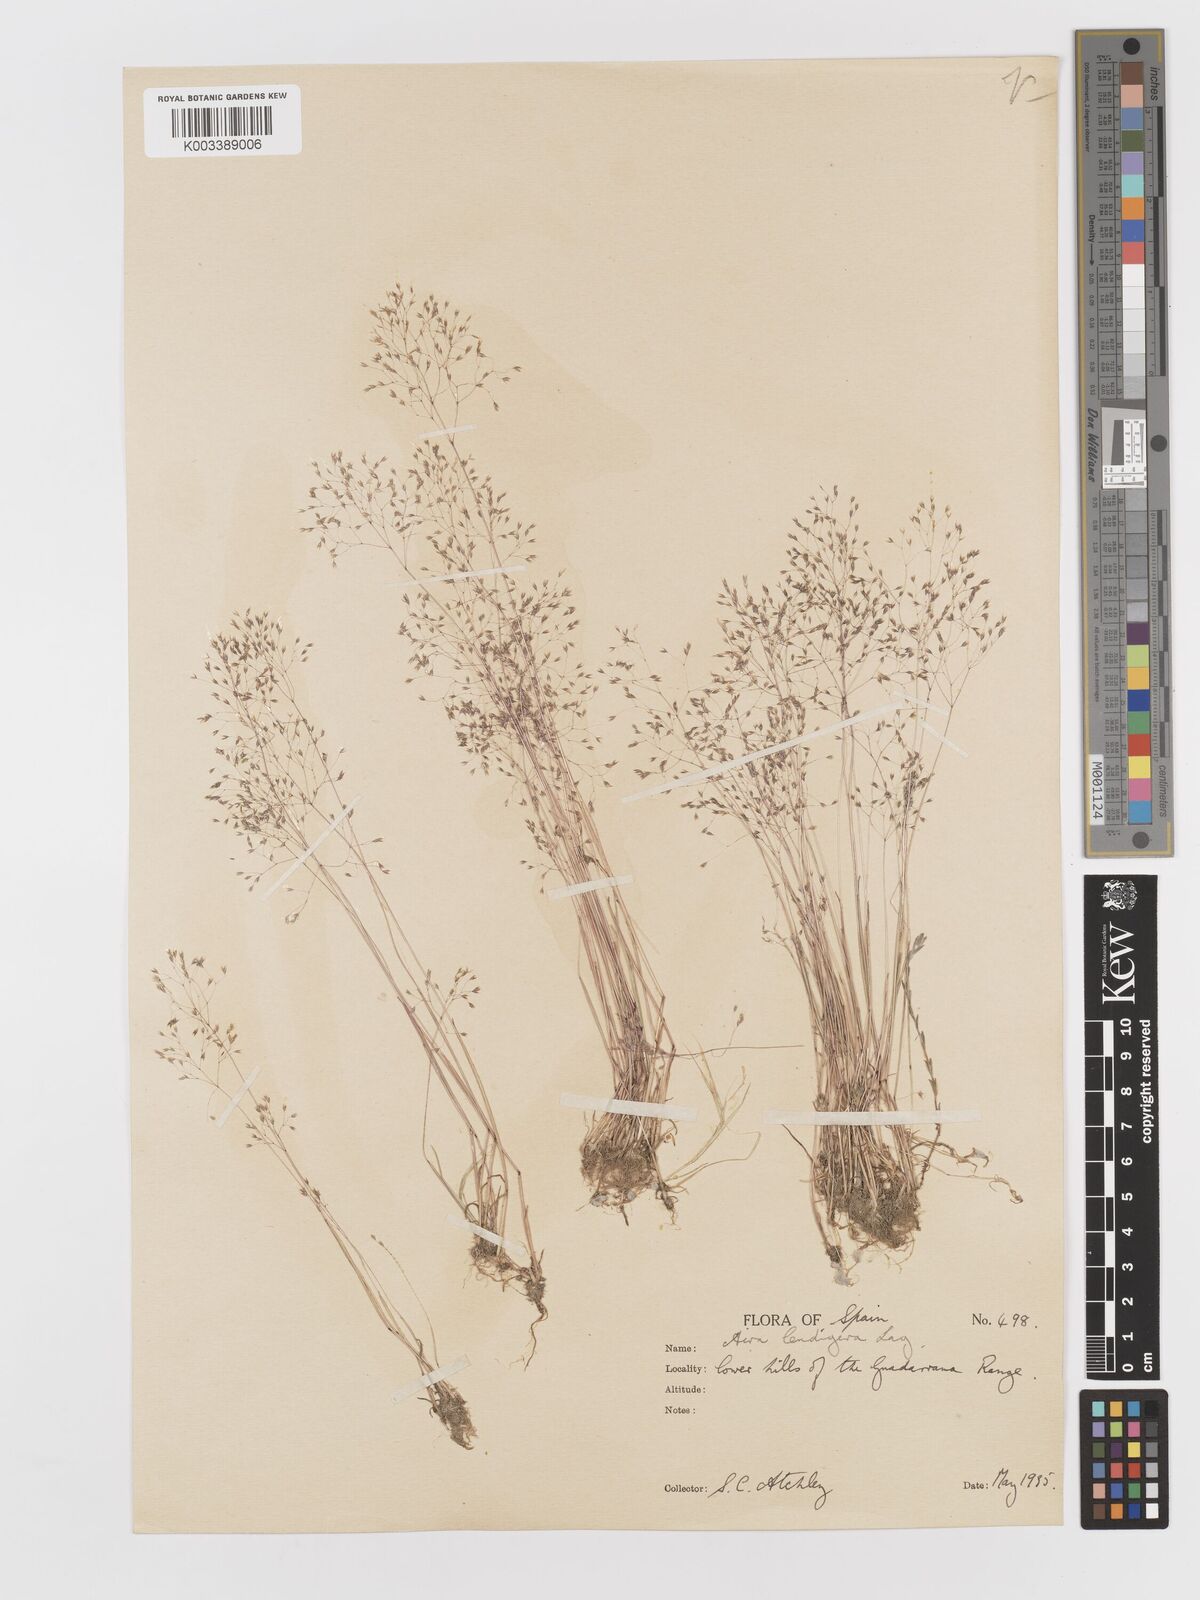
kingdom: Plantae
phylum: Tracheophyta
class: Liliopsida
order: Poales
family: Poaceae
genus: Molineriella
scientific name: Molineriella laevis
